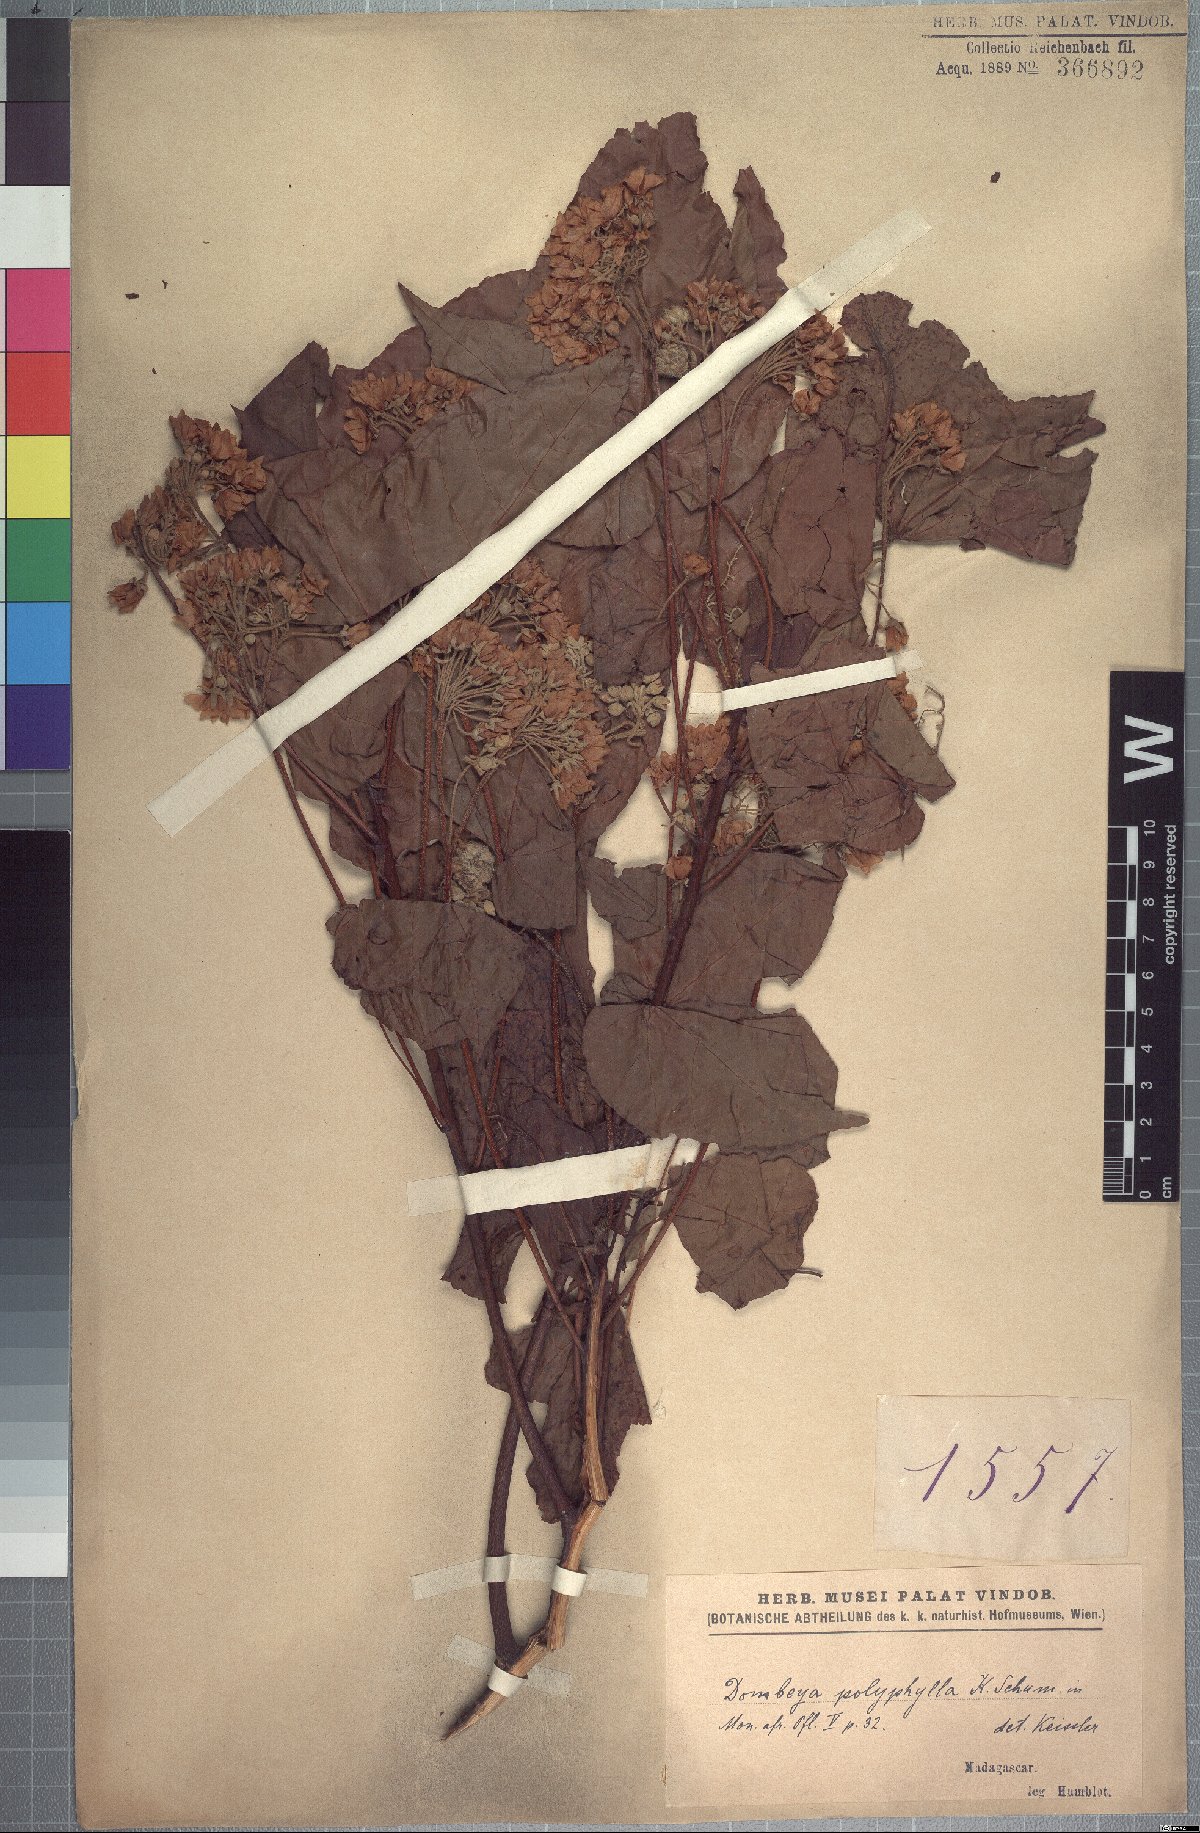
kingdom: Plantae
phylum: Tracheophyta
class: Magnoliopsida
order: Malvales
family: Malvaceae
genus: Dombeya
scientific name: Dombeya polyphylla
